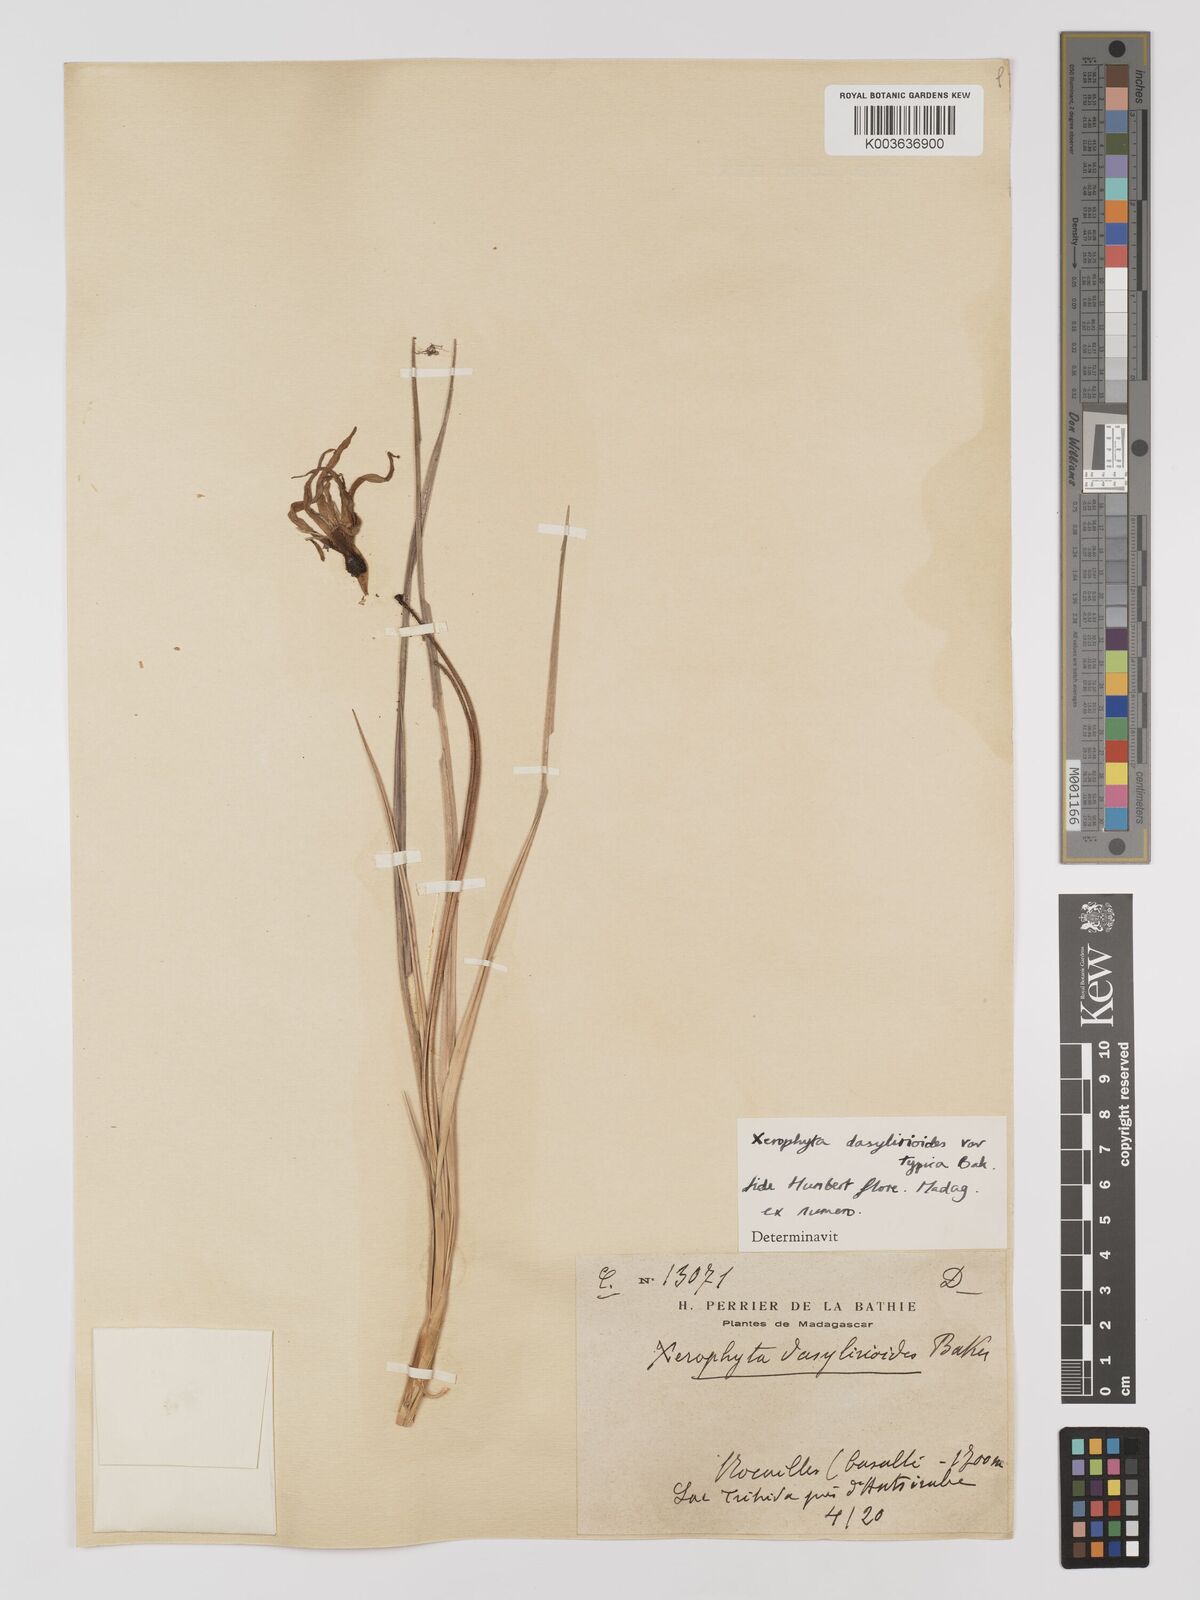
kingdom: Plantae
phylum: Tracheophyta
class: Liliopsida
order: Pandanales
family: Velloziaceae
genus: Xerophyta
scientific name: Xerophyta dasylirioides
